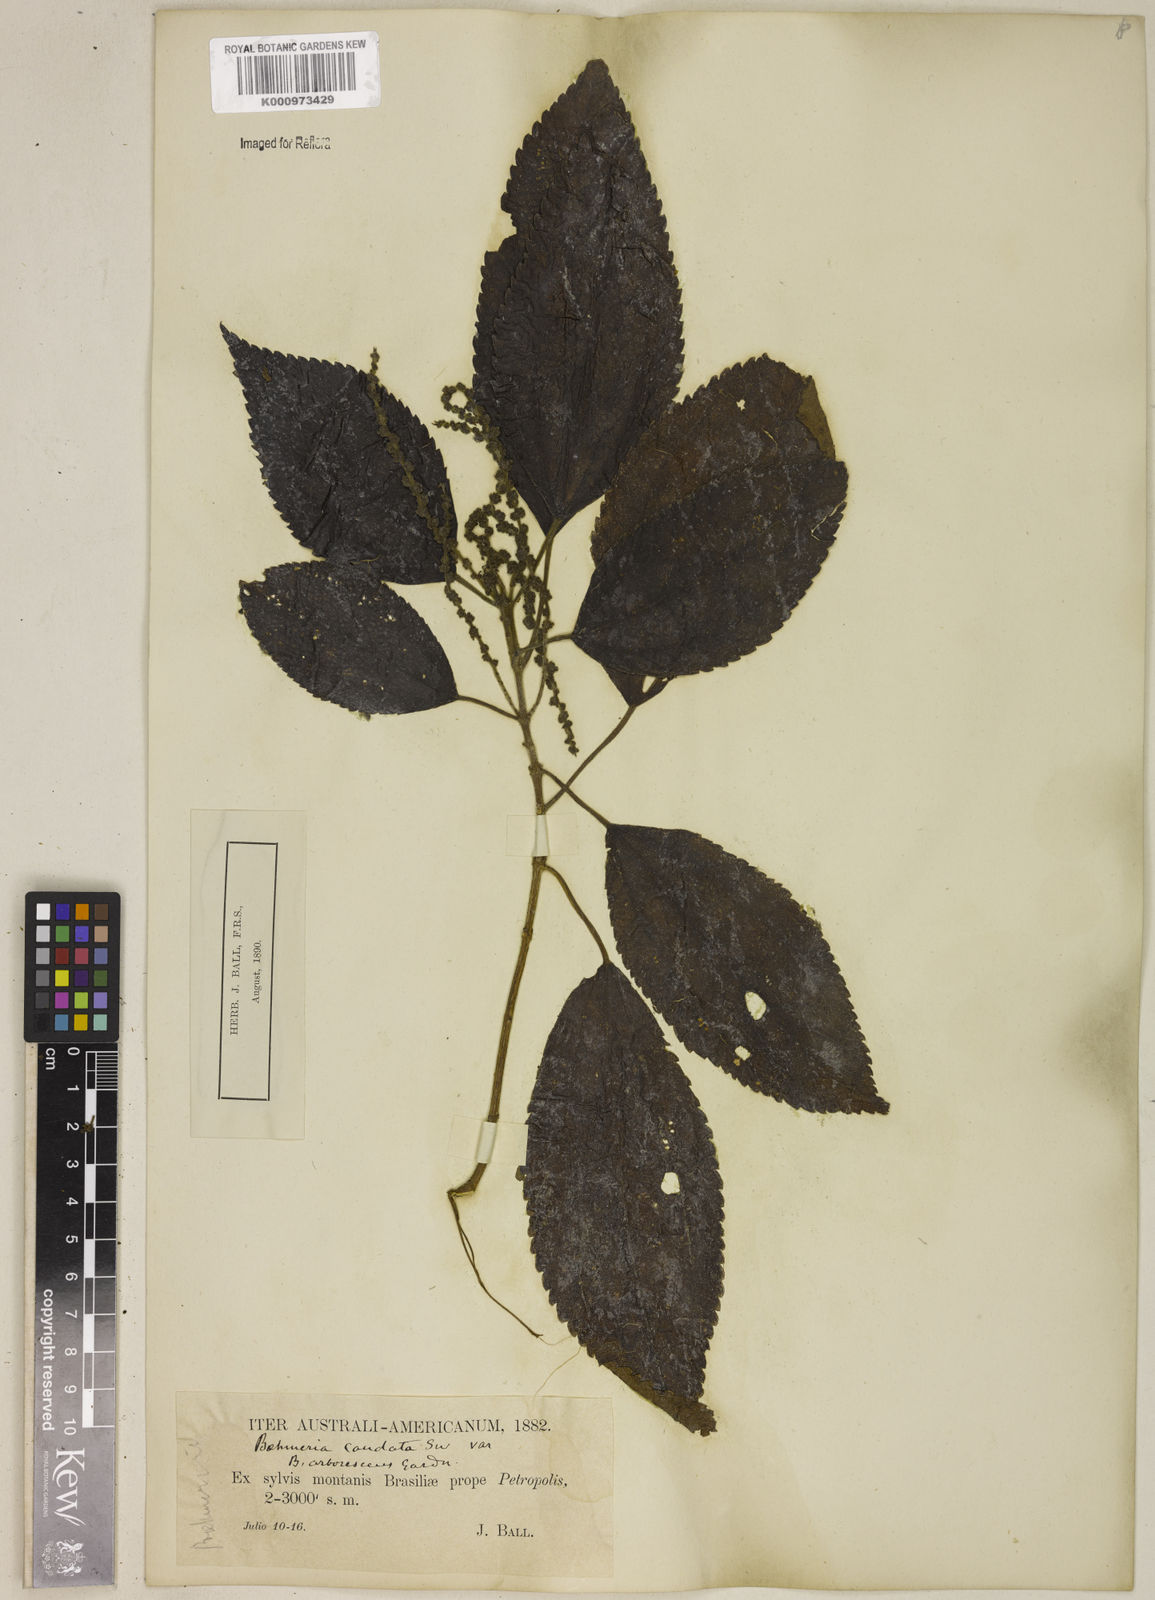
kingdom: Plantae
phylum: Tracheophyta
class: Magnoliopsida
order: Rosales
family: Urticaceae
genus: Boehmeria
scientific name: Boehmeria caudata
